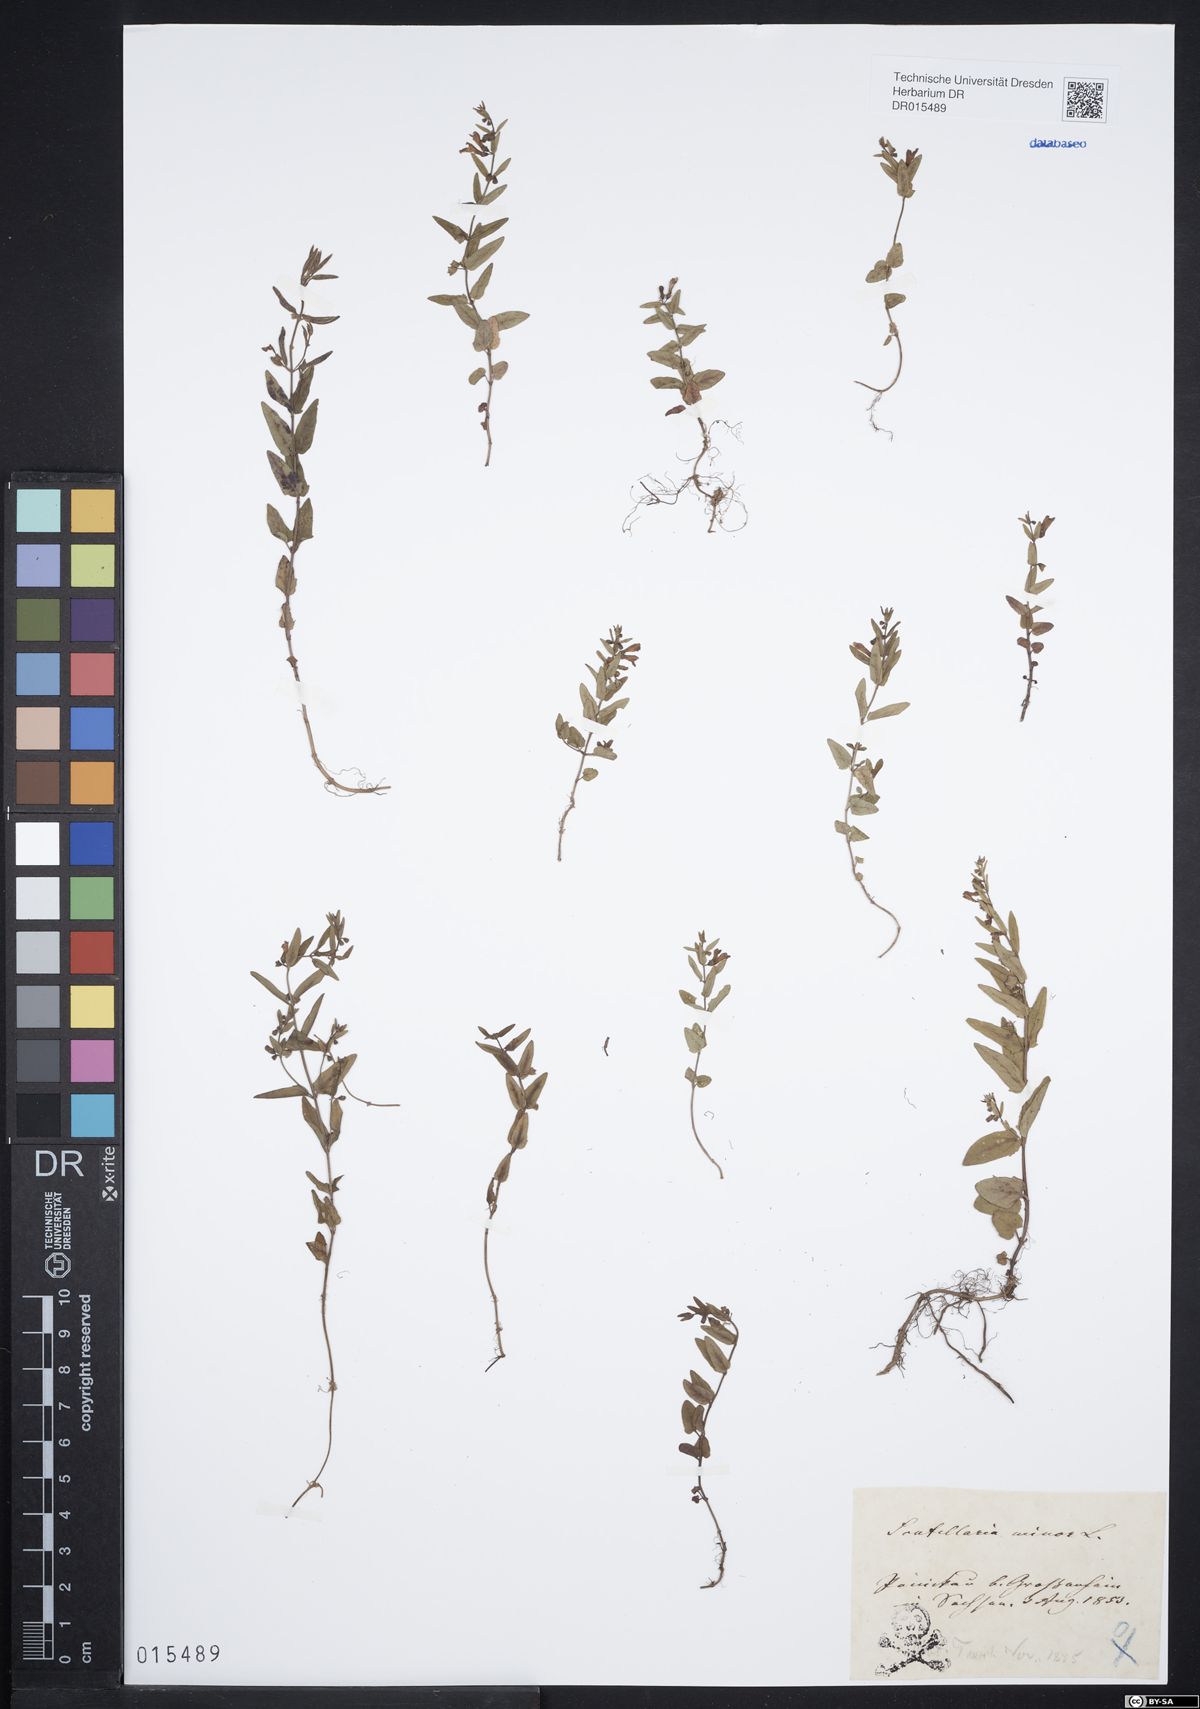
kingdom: Plantae
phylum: Tracheophyta
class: Magnoliopsida
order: Lamiales
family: Lamiaceae
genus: Scutellaria
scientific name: Scutellaria minor
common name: Lesser skullcap
